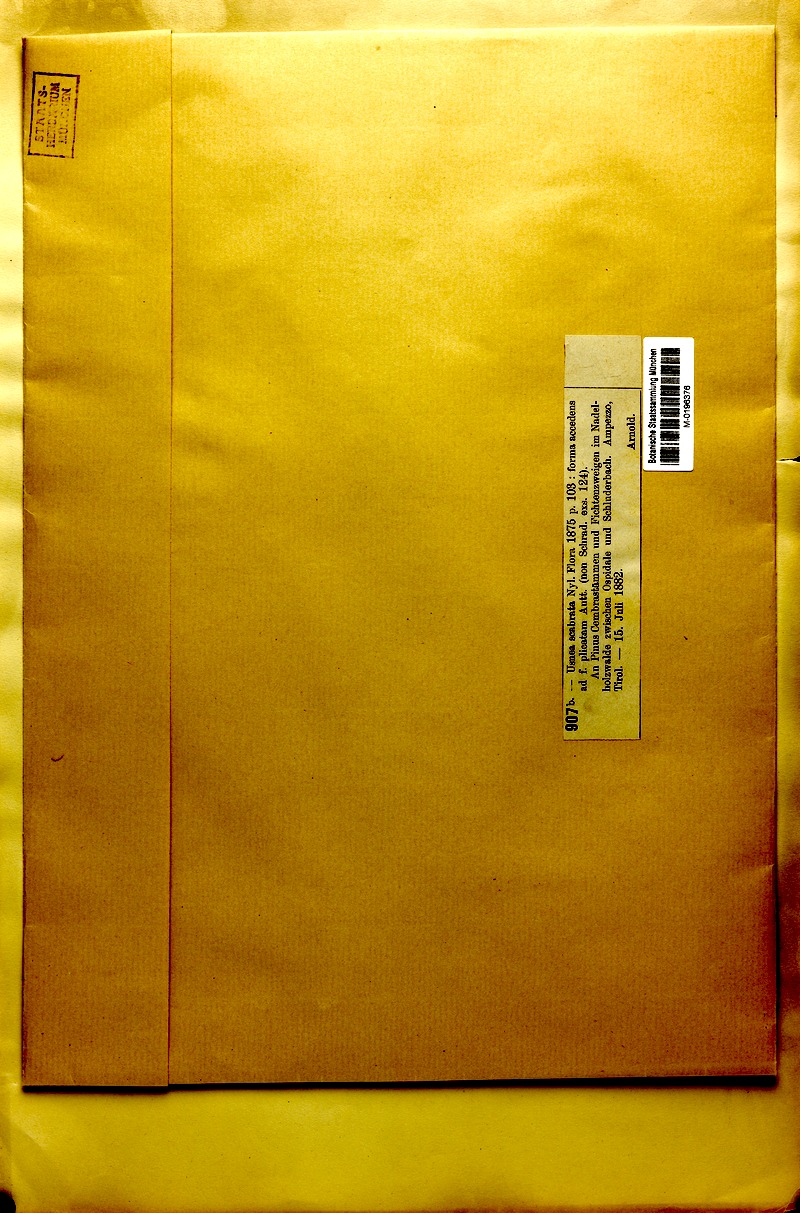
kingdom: Fungi
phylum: Ascomycota
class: Lecanoromycetes
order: Lecanorales
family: Parmeliaceae
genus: Usnea
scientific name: Usnea scabrata
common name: Straw beard lichen
